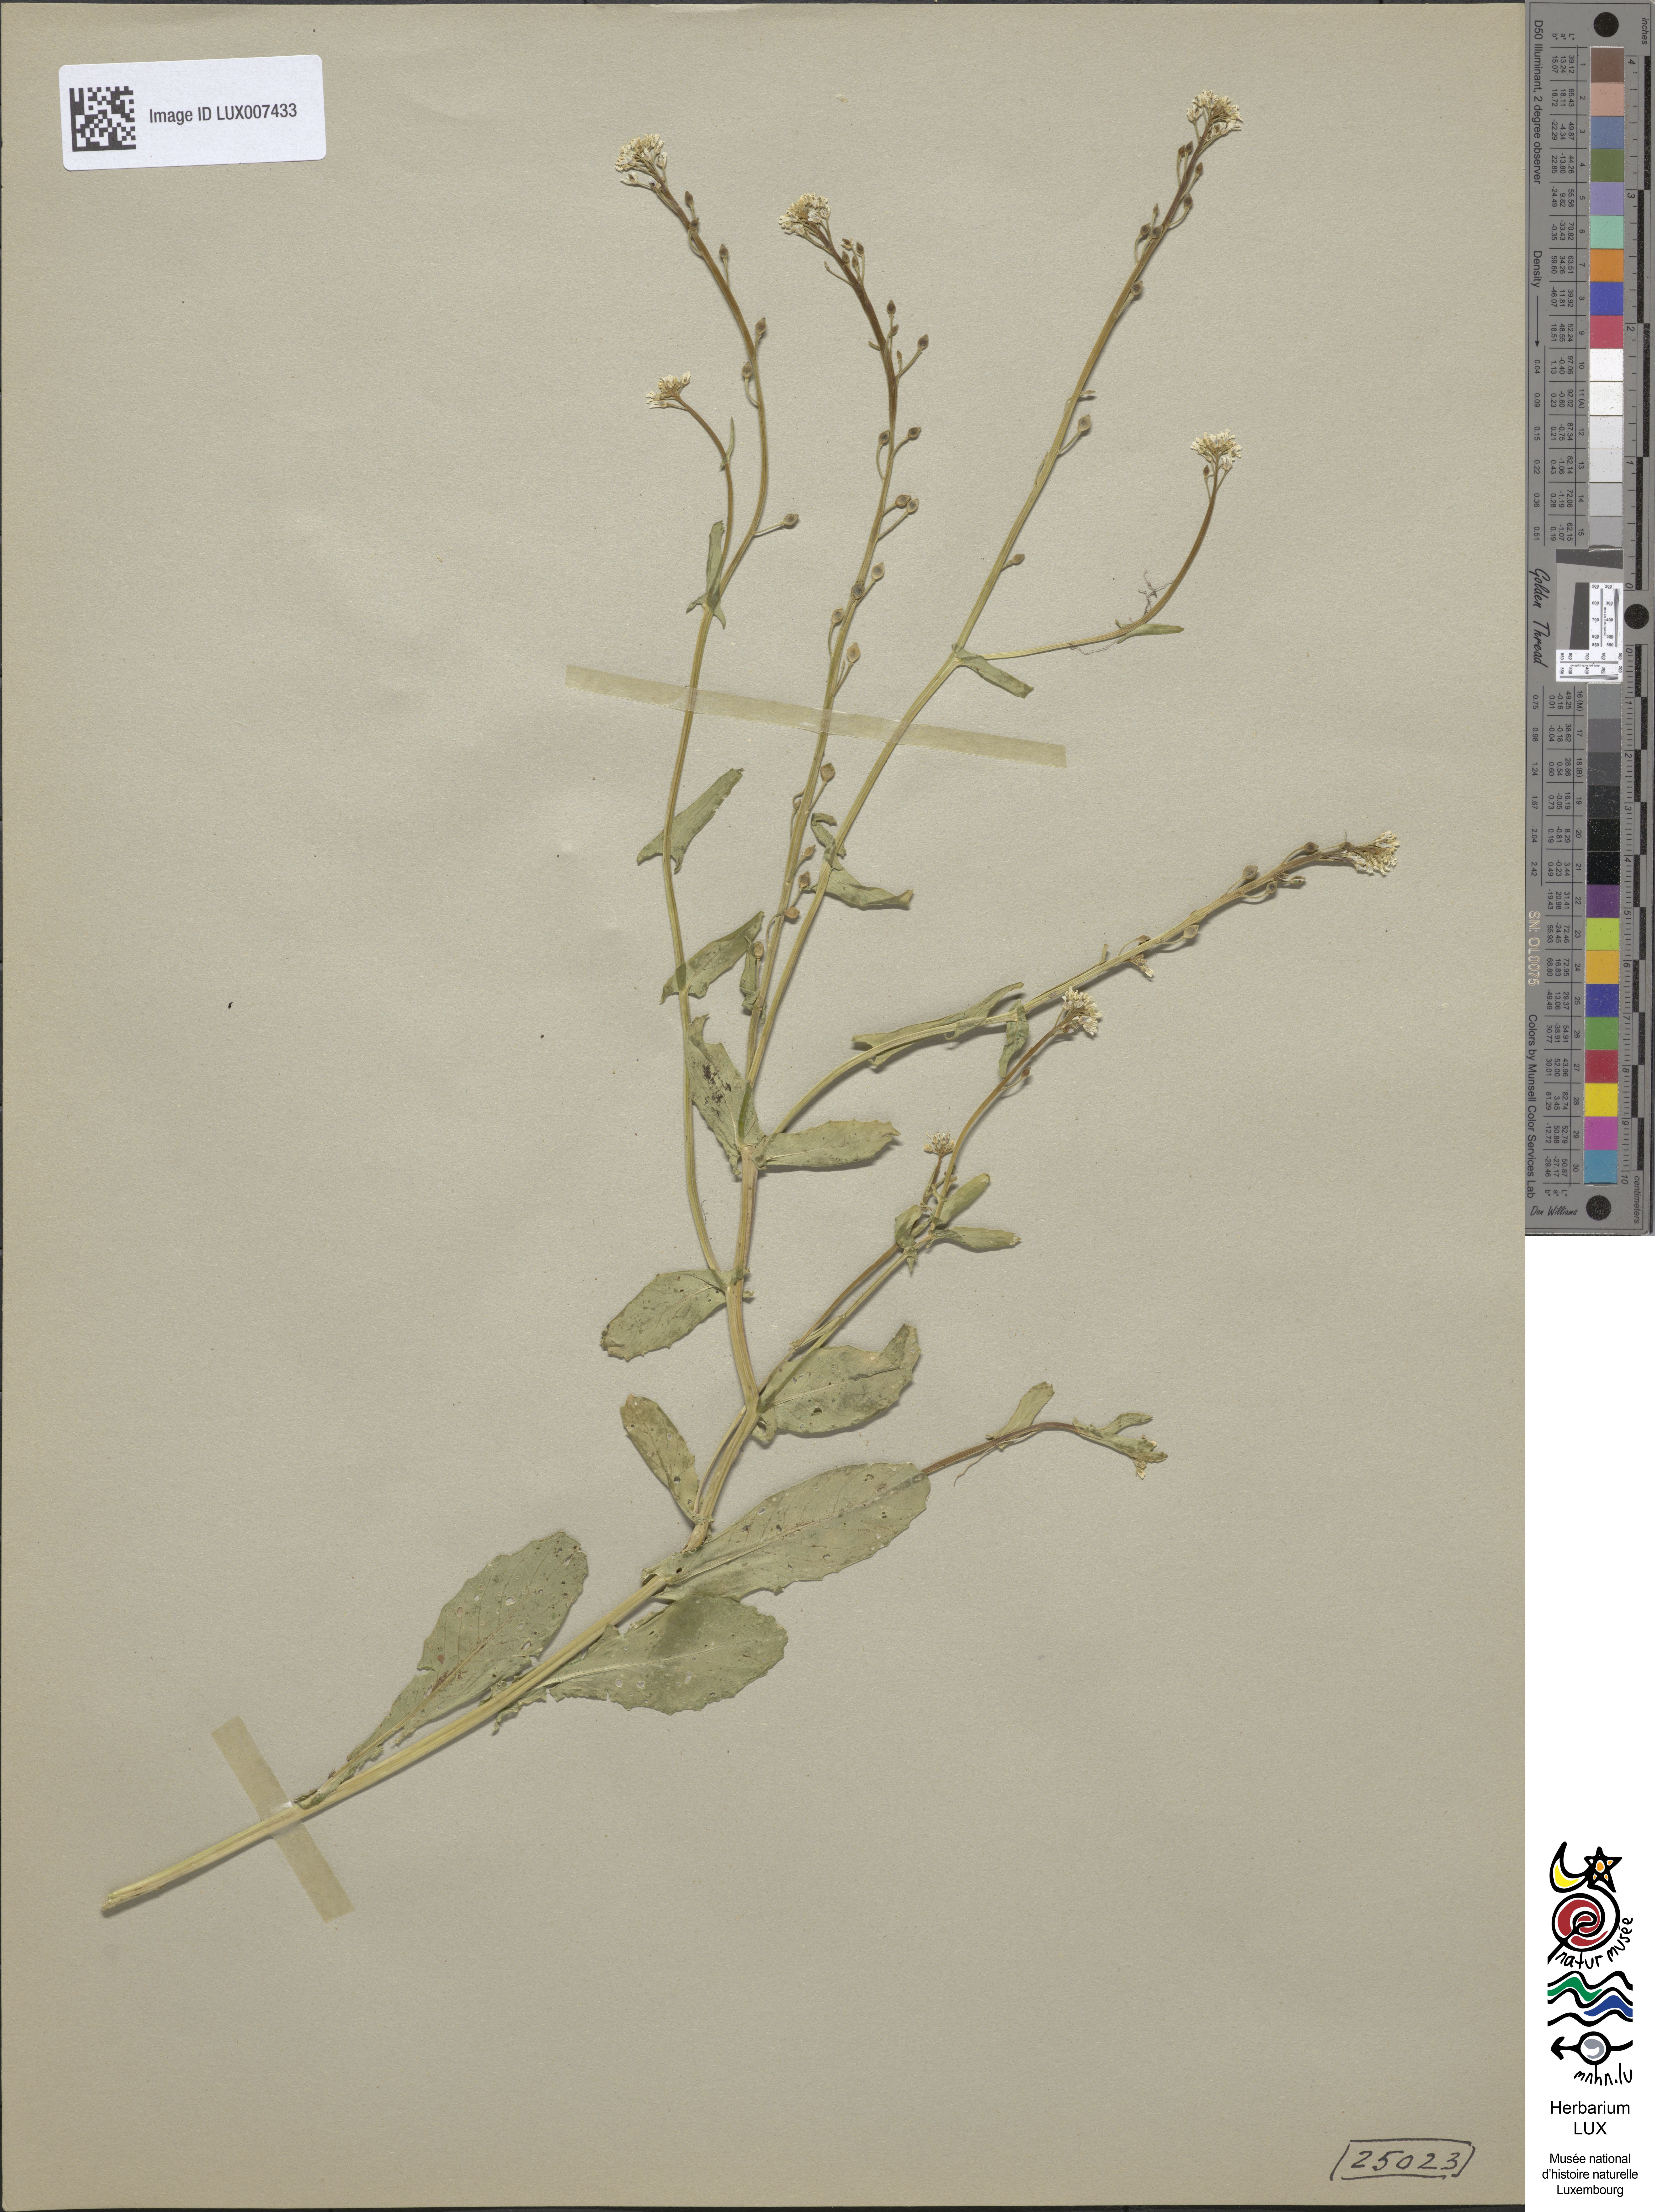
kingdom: Plantae
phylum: Tracheophyta
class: Magnoliopsida
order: Brassicales
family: Brassicaceae
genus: Calepina
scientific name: Calepina irregularis
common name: White ballmustard
